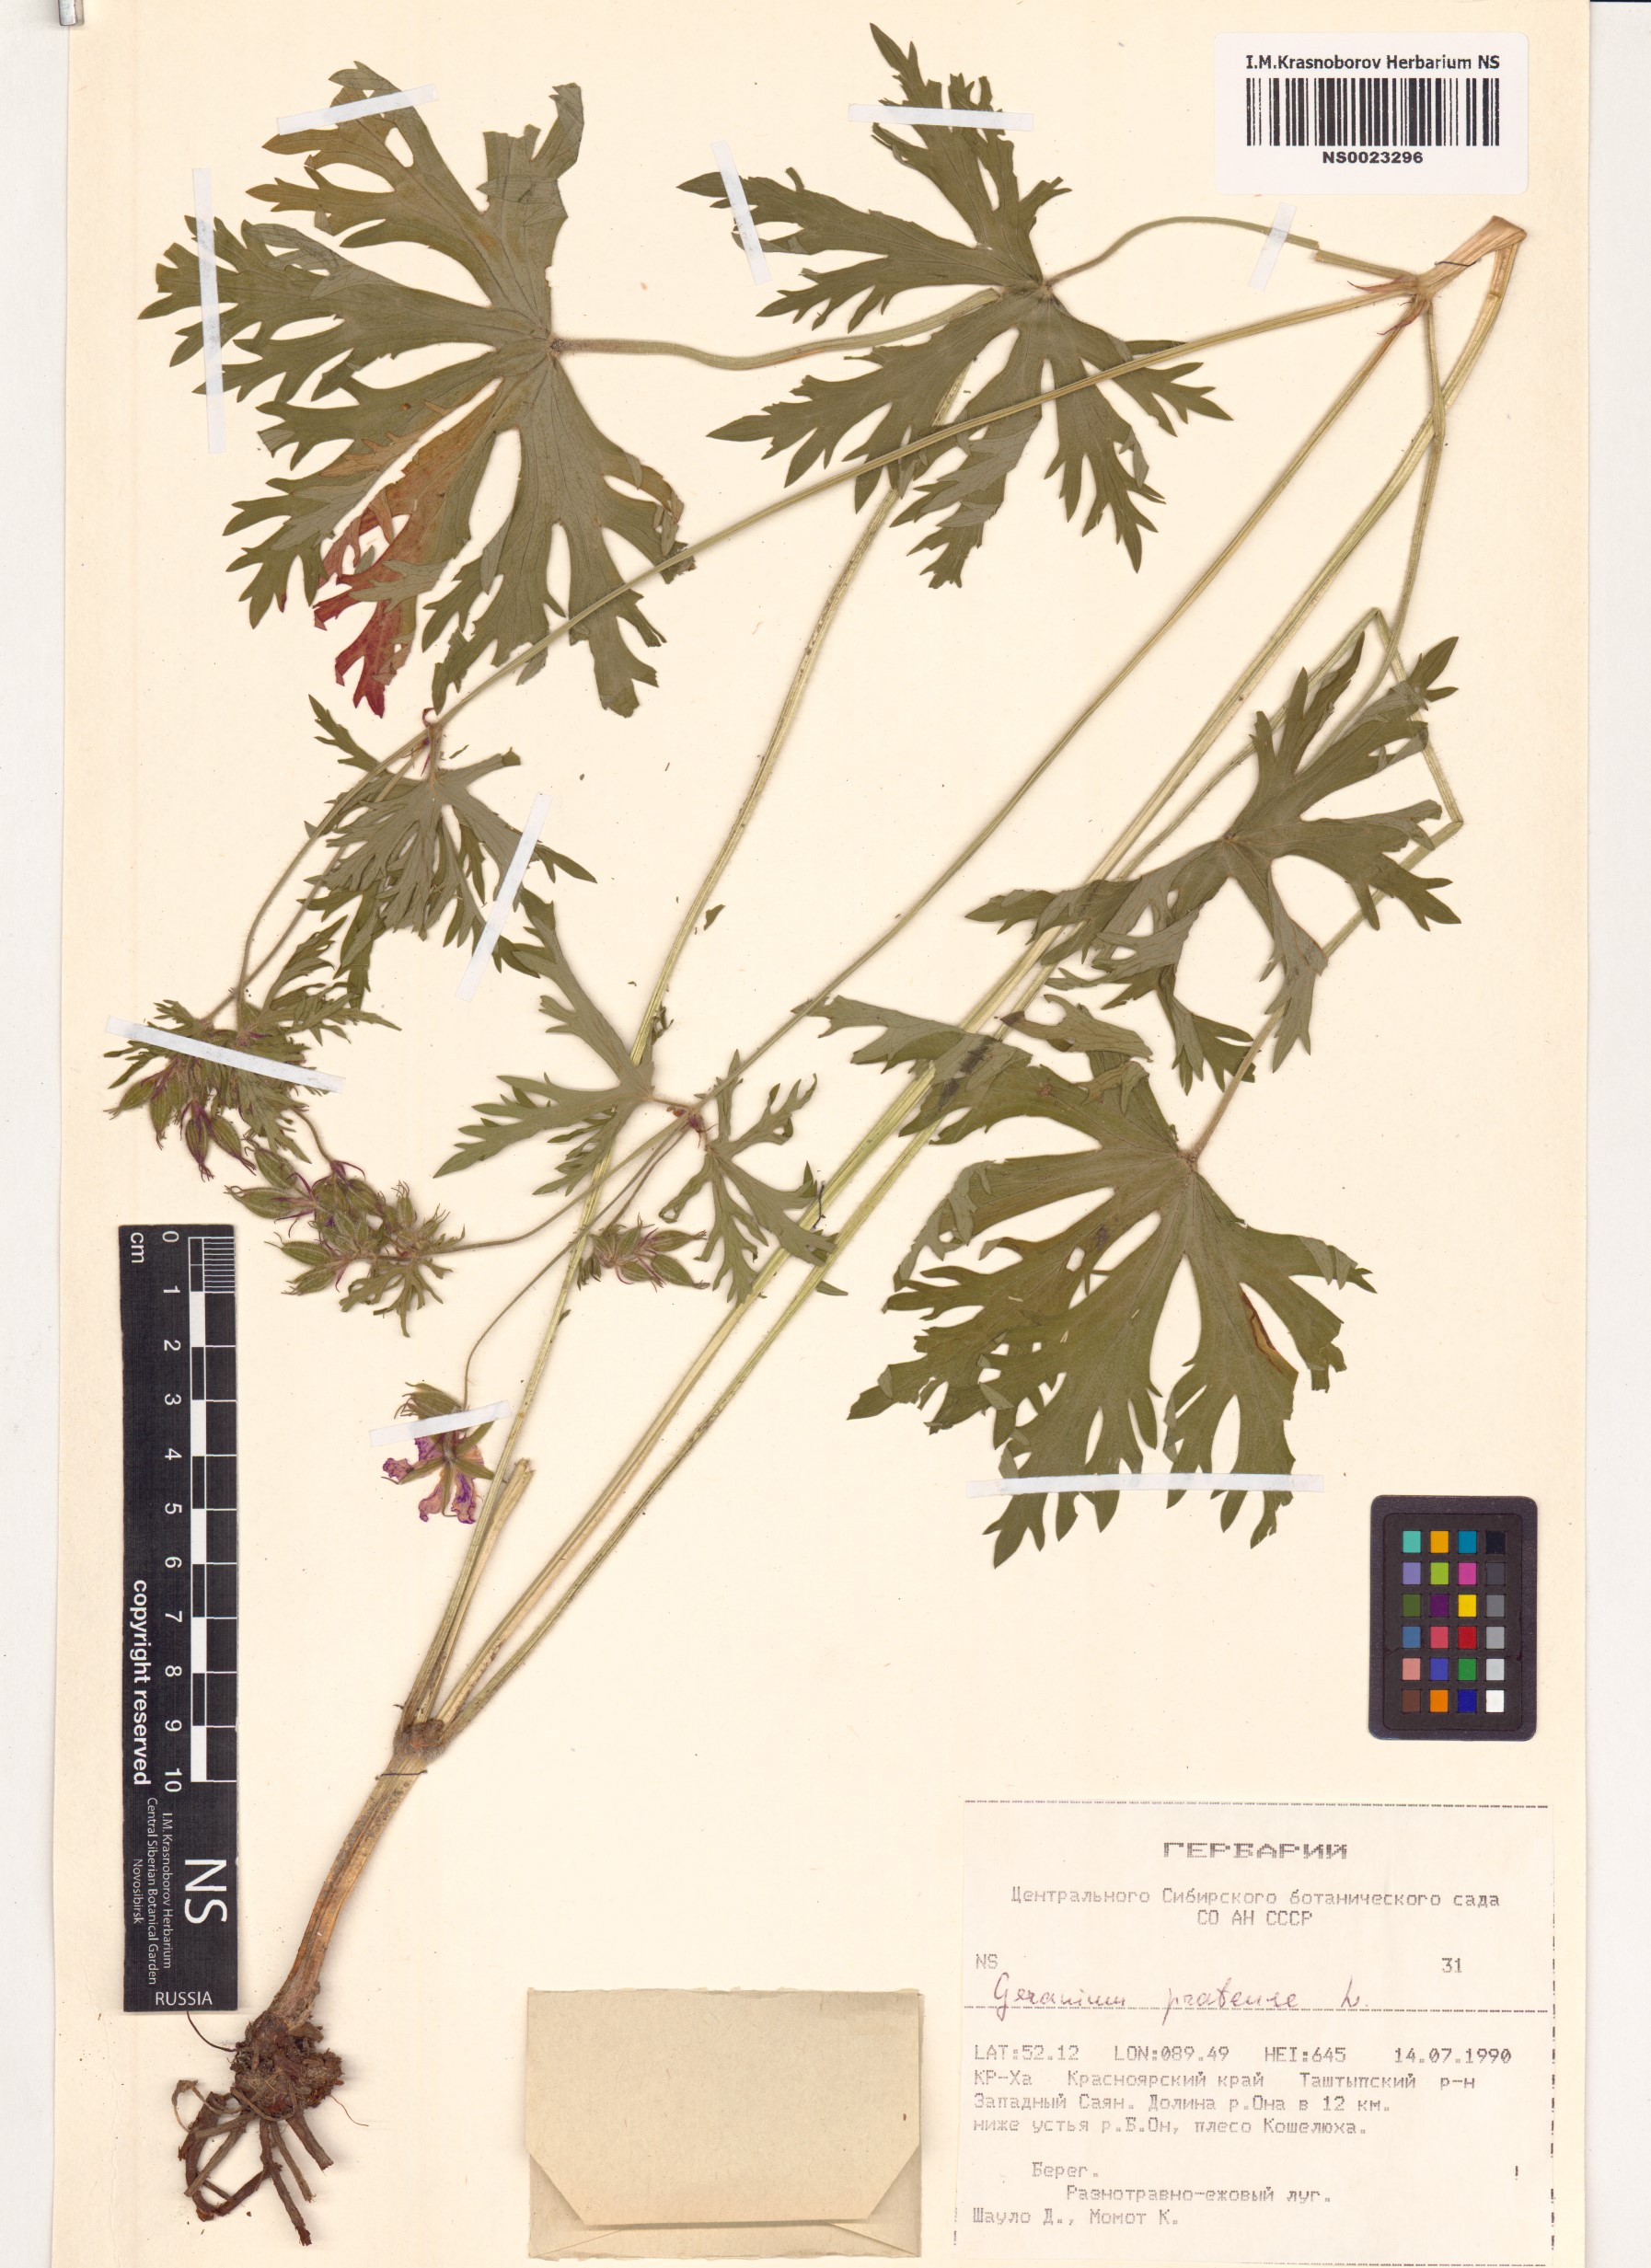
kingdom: Plantae
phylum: Tracheophyta
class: Magnoliopsida
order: Geraniales
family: Geraniaceae
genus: Geranium
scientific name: Geranium pratense
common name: Meadow crane's-bill
